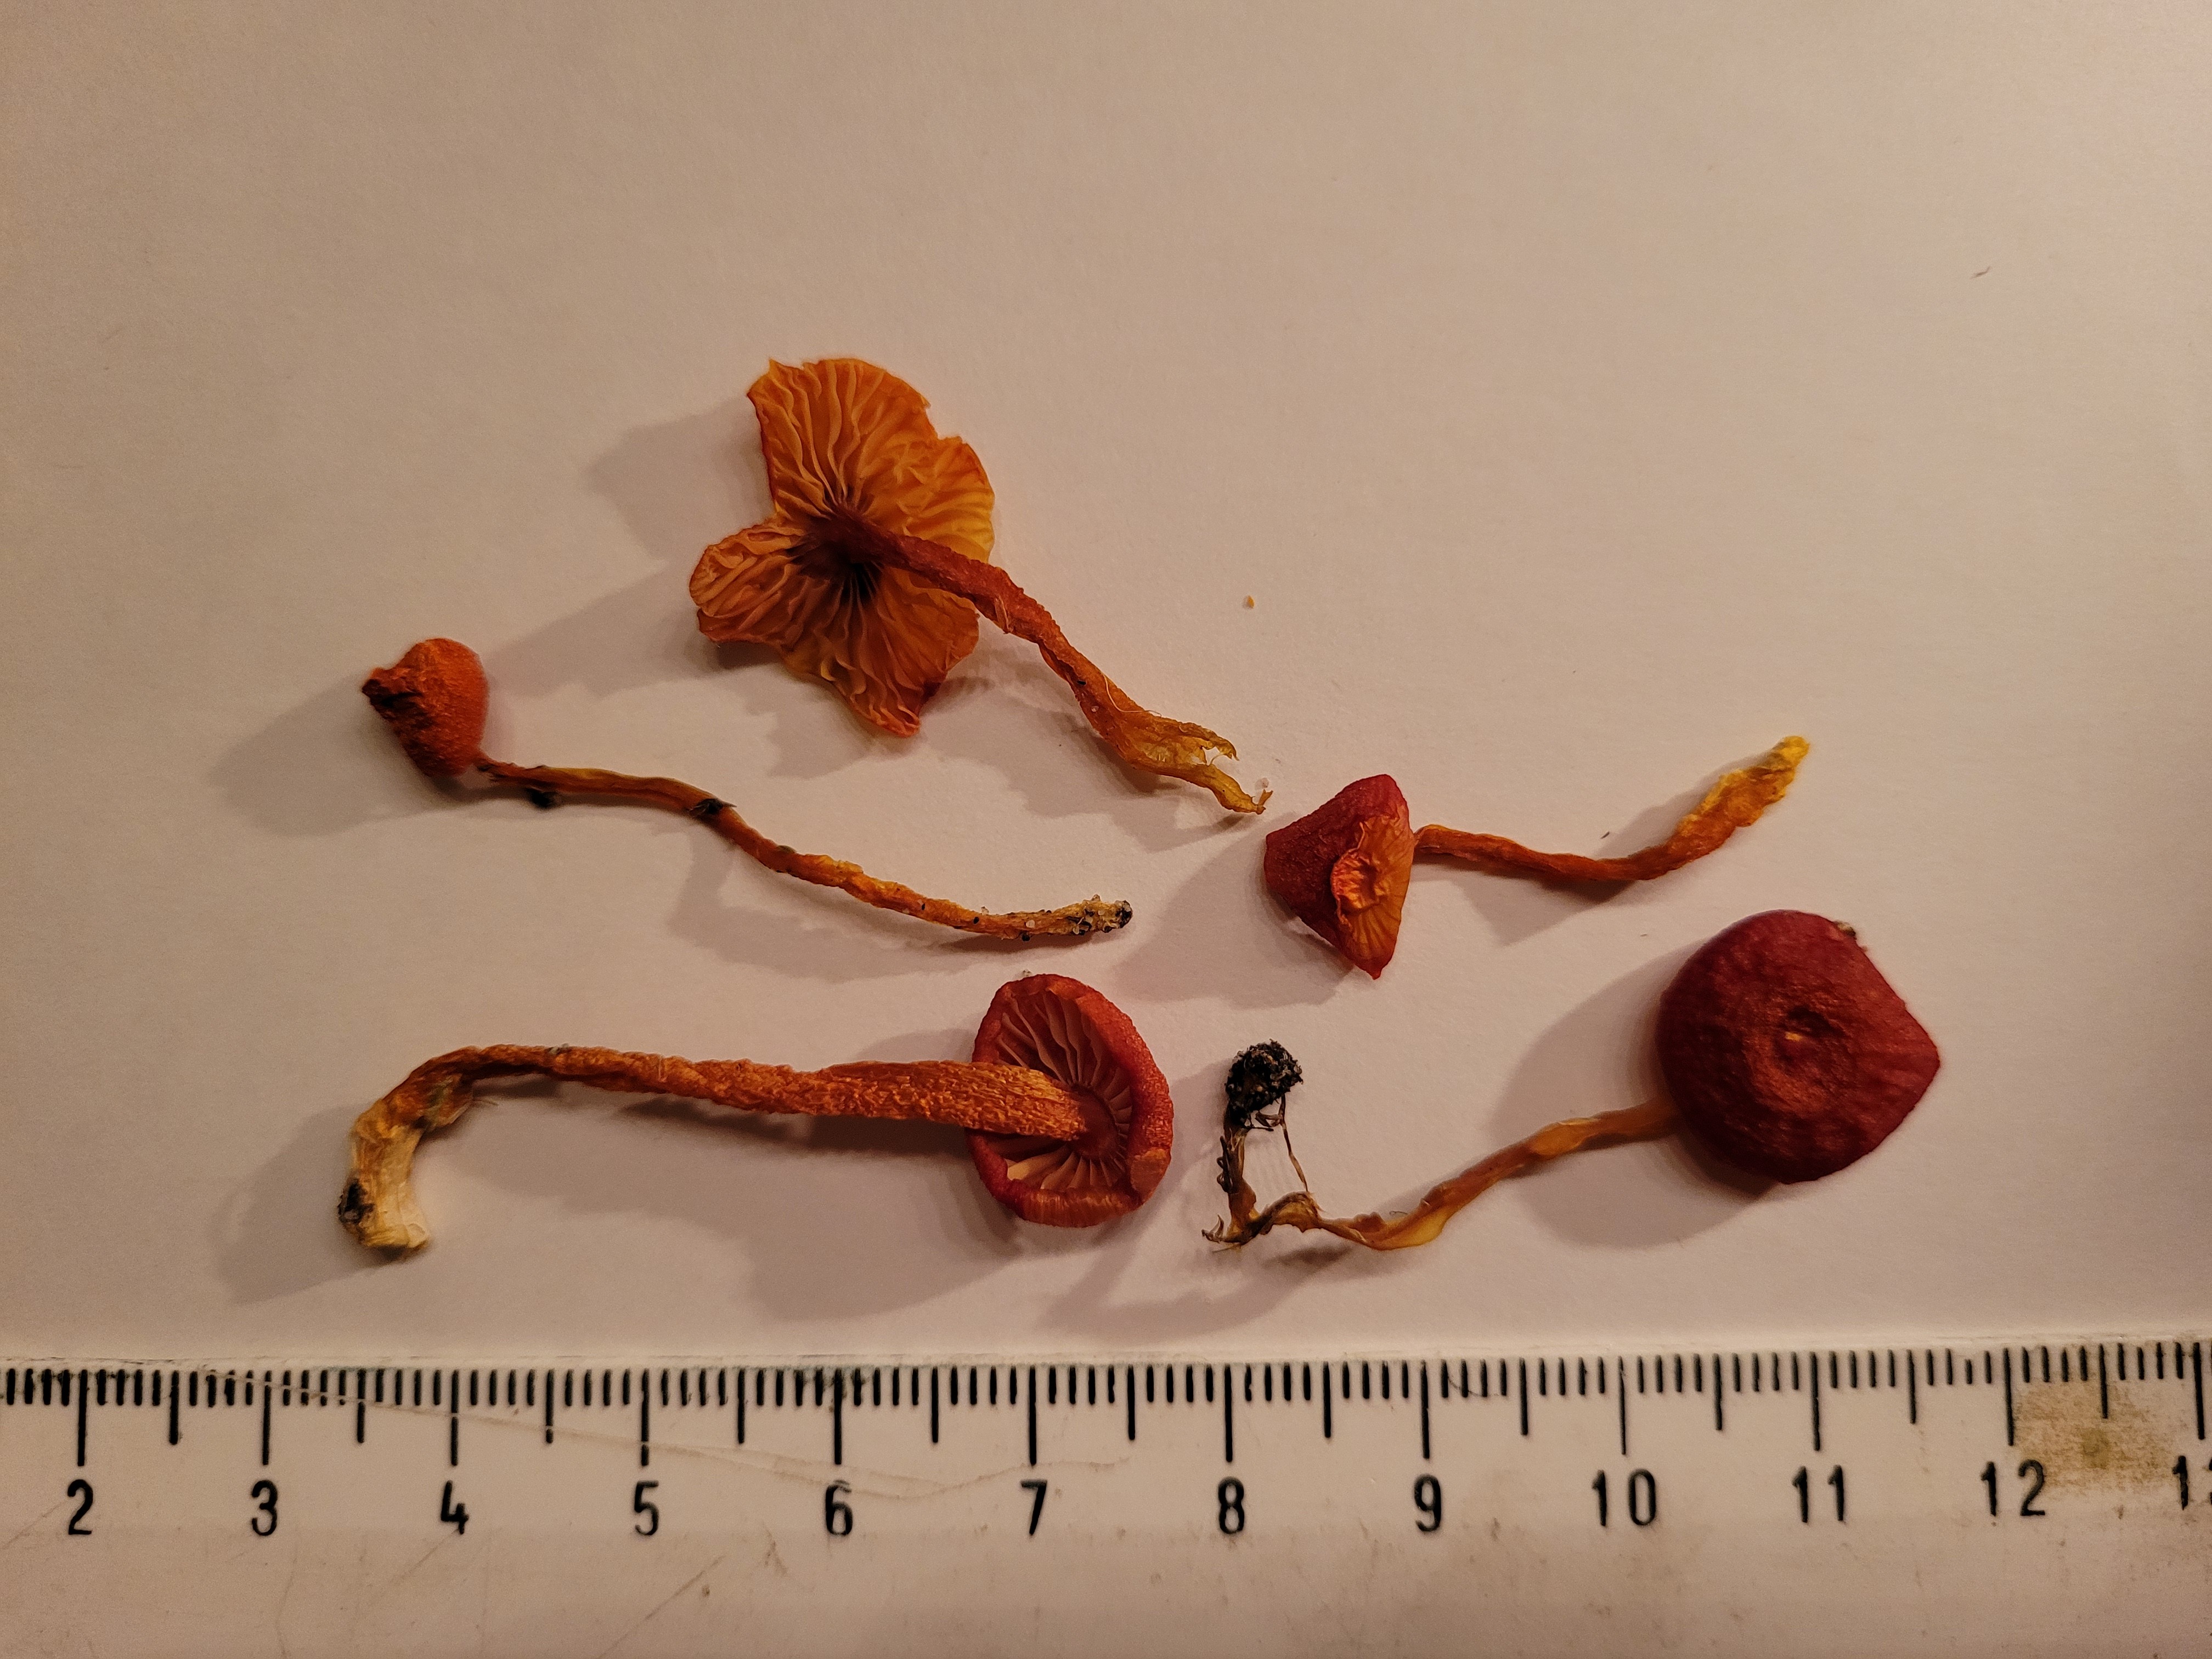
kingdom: Fungi
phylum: Basidiomycota
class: Agaricomycetes
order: Agaricales
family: Hygrophoraceae
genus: Hygrocybe
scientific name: Hygrocybe coccinea
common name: Scarlet hood
